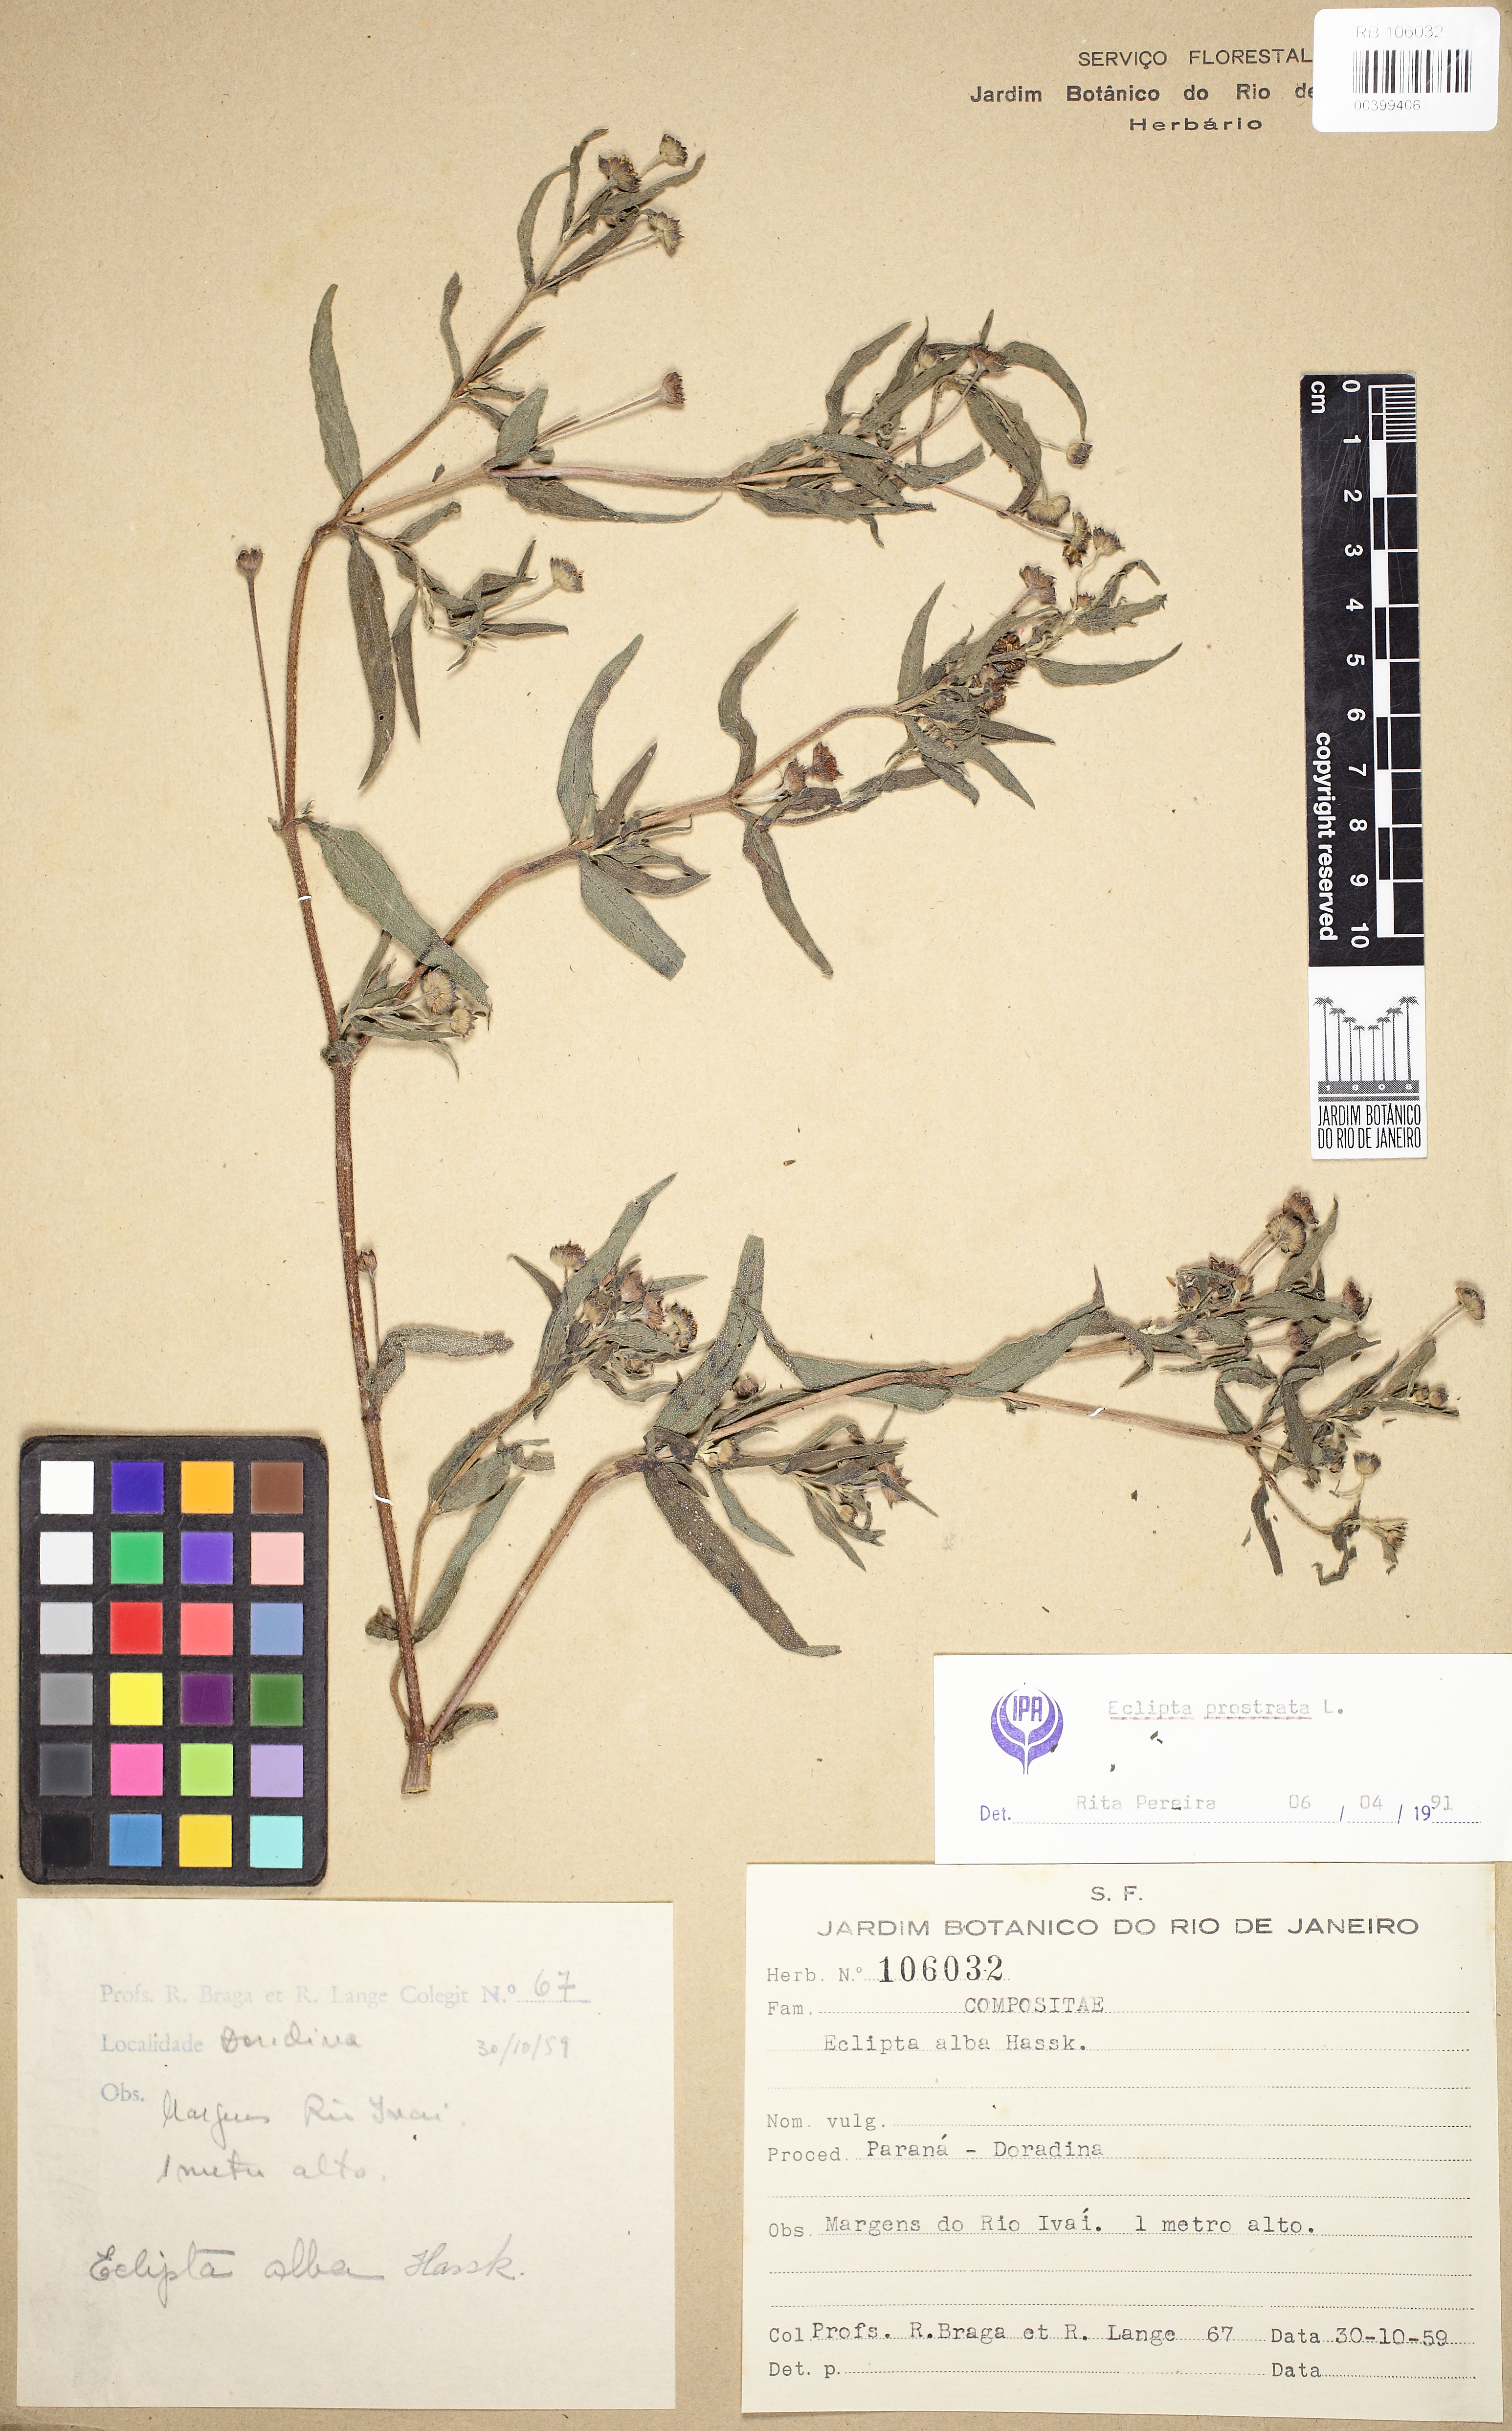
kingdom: Plantae
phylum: Tracheophyta
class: Magnoliopsida
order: Asterales
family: Asteraceae
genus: Eclipta
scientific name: Eclipta prostrata
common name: False daisy
